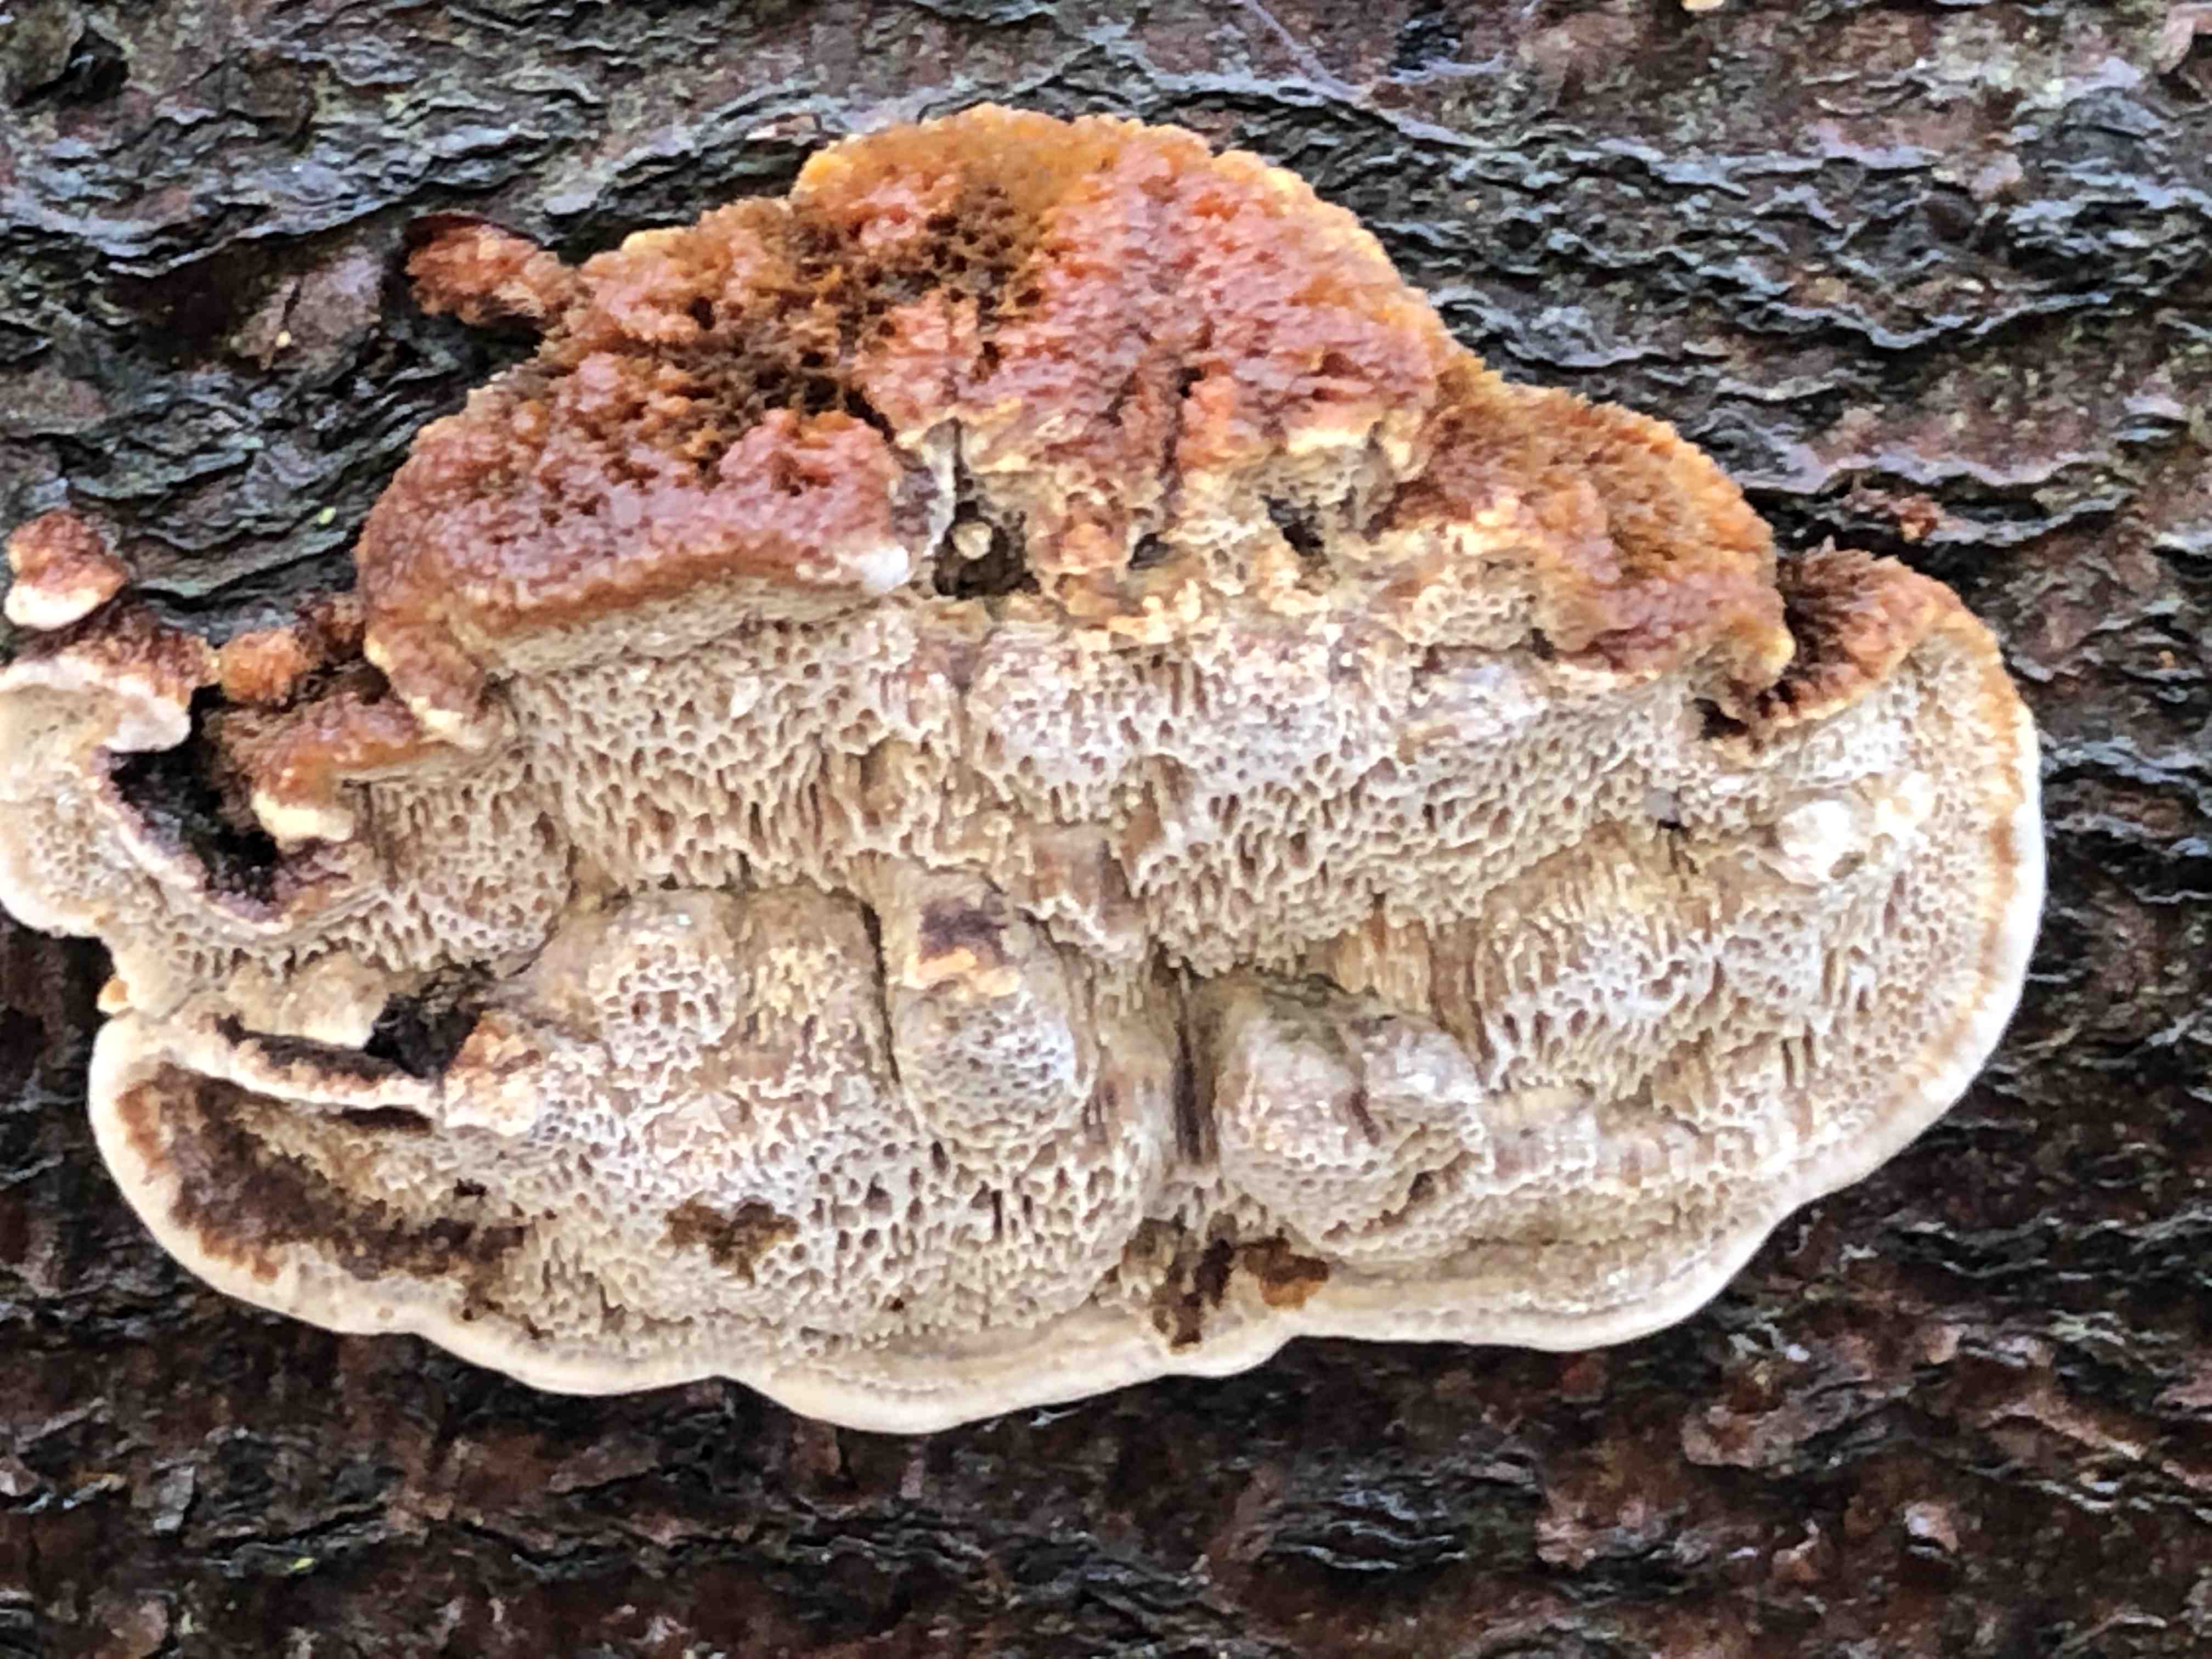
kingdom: Fungi
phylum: Basidiomycota
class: Agaricomycetes
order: Hymenochaetales
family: Hymenochaetaceae
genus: Mensularia
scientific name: Mensularia nodulosa
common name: bøge-spejlporesvamp
